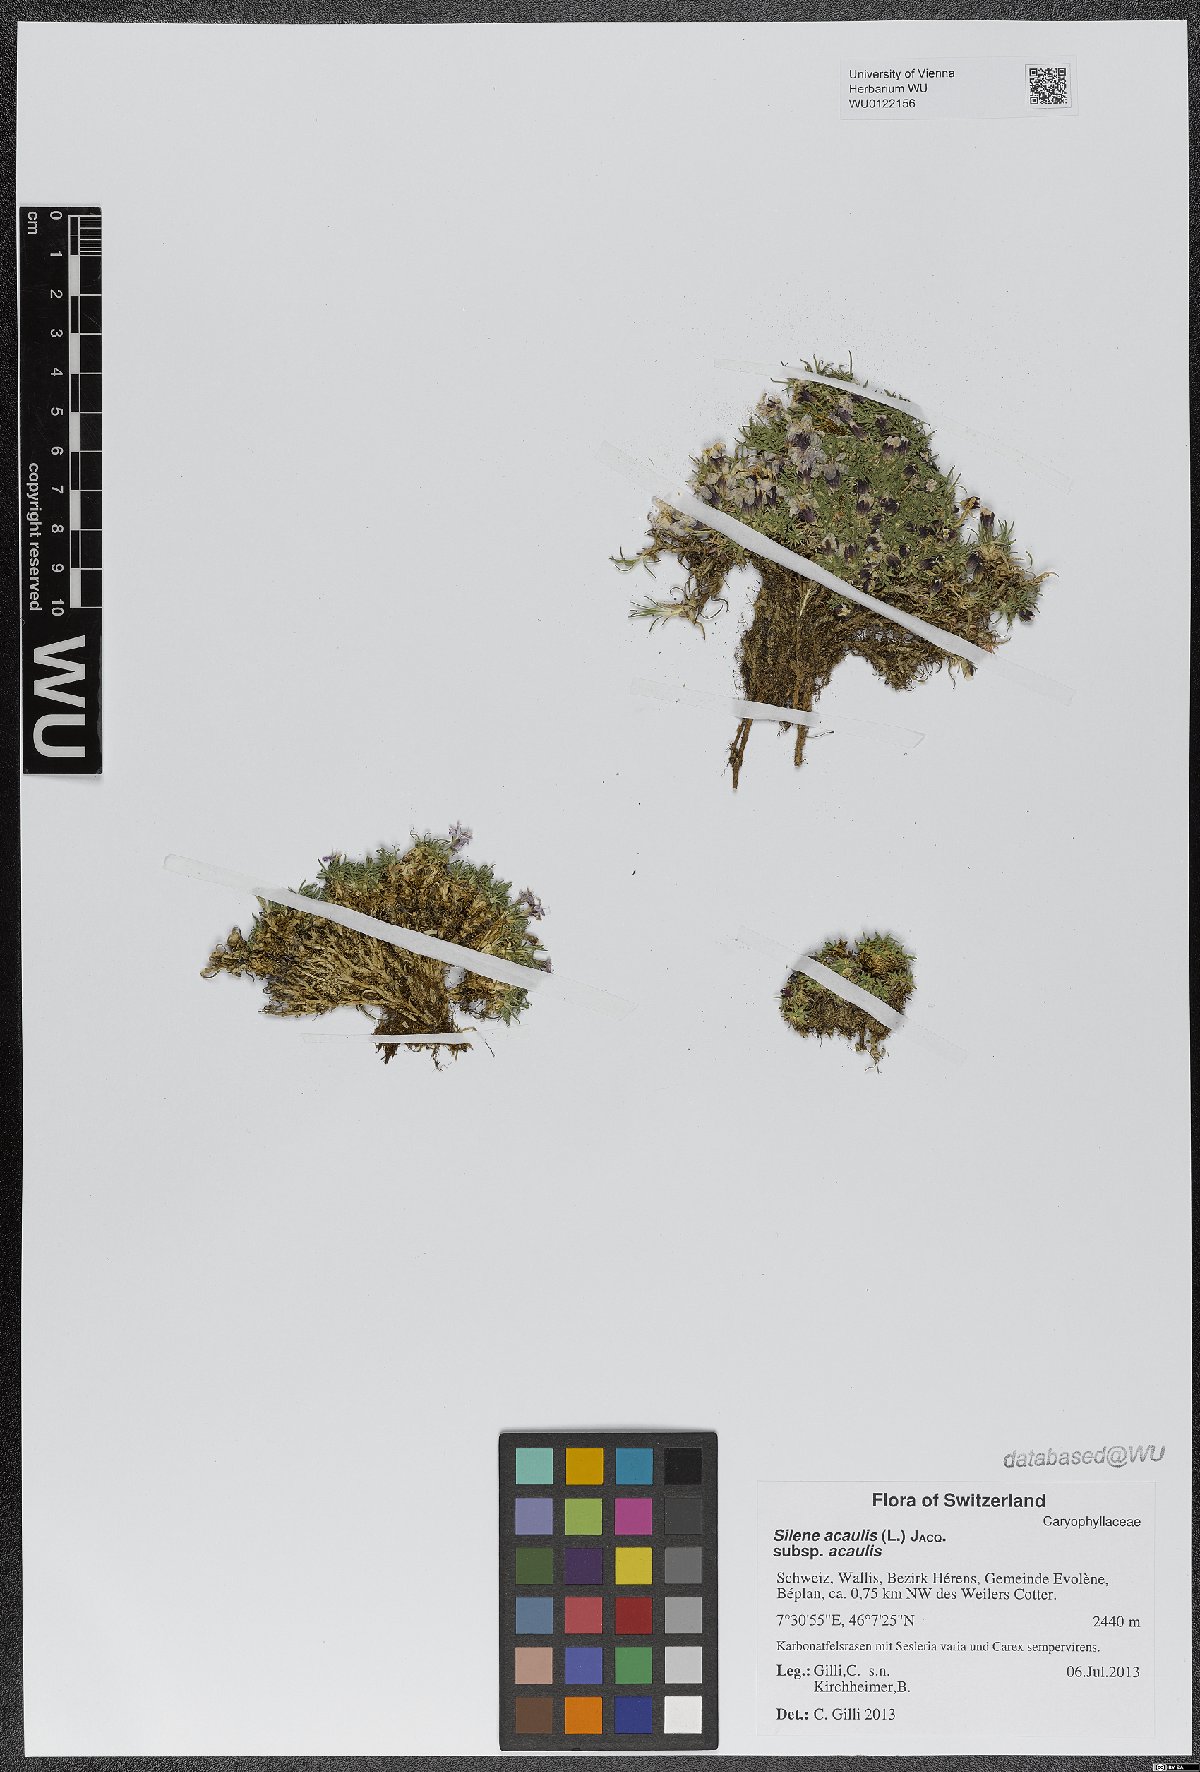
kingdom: Plantae
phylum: Tracheophyta
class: Magnoliopsida
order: Caryophyllales
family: Caryophyllaceae
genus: Silene
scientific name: Silene acaulis
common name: Moss campion
